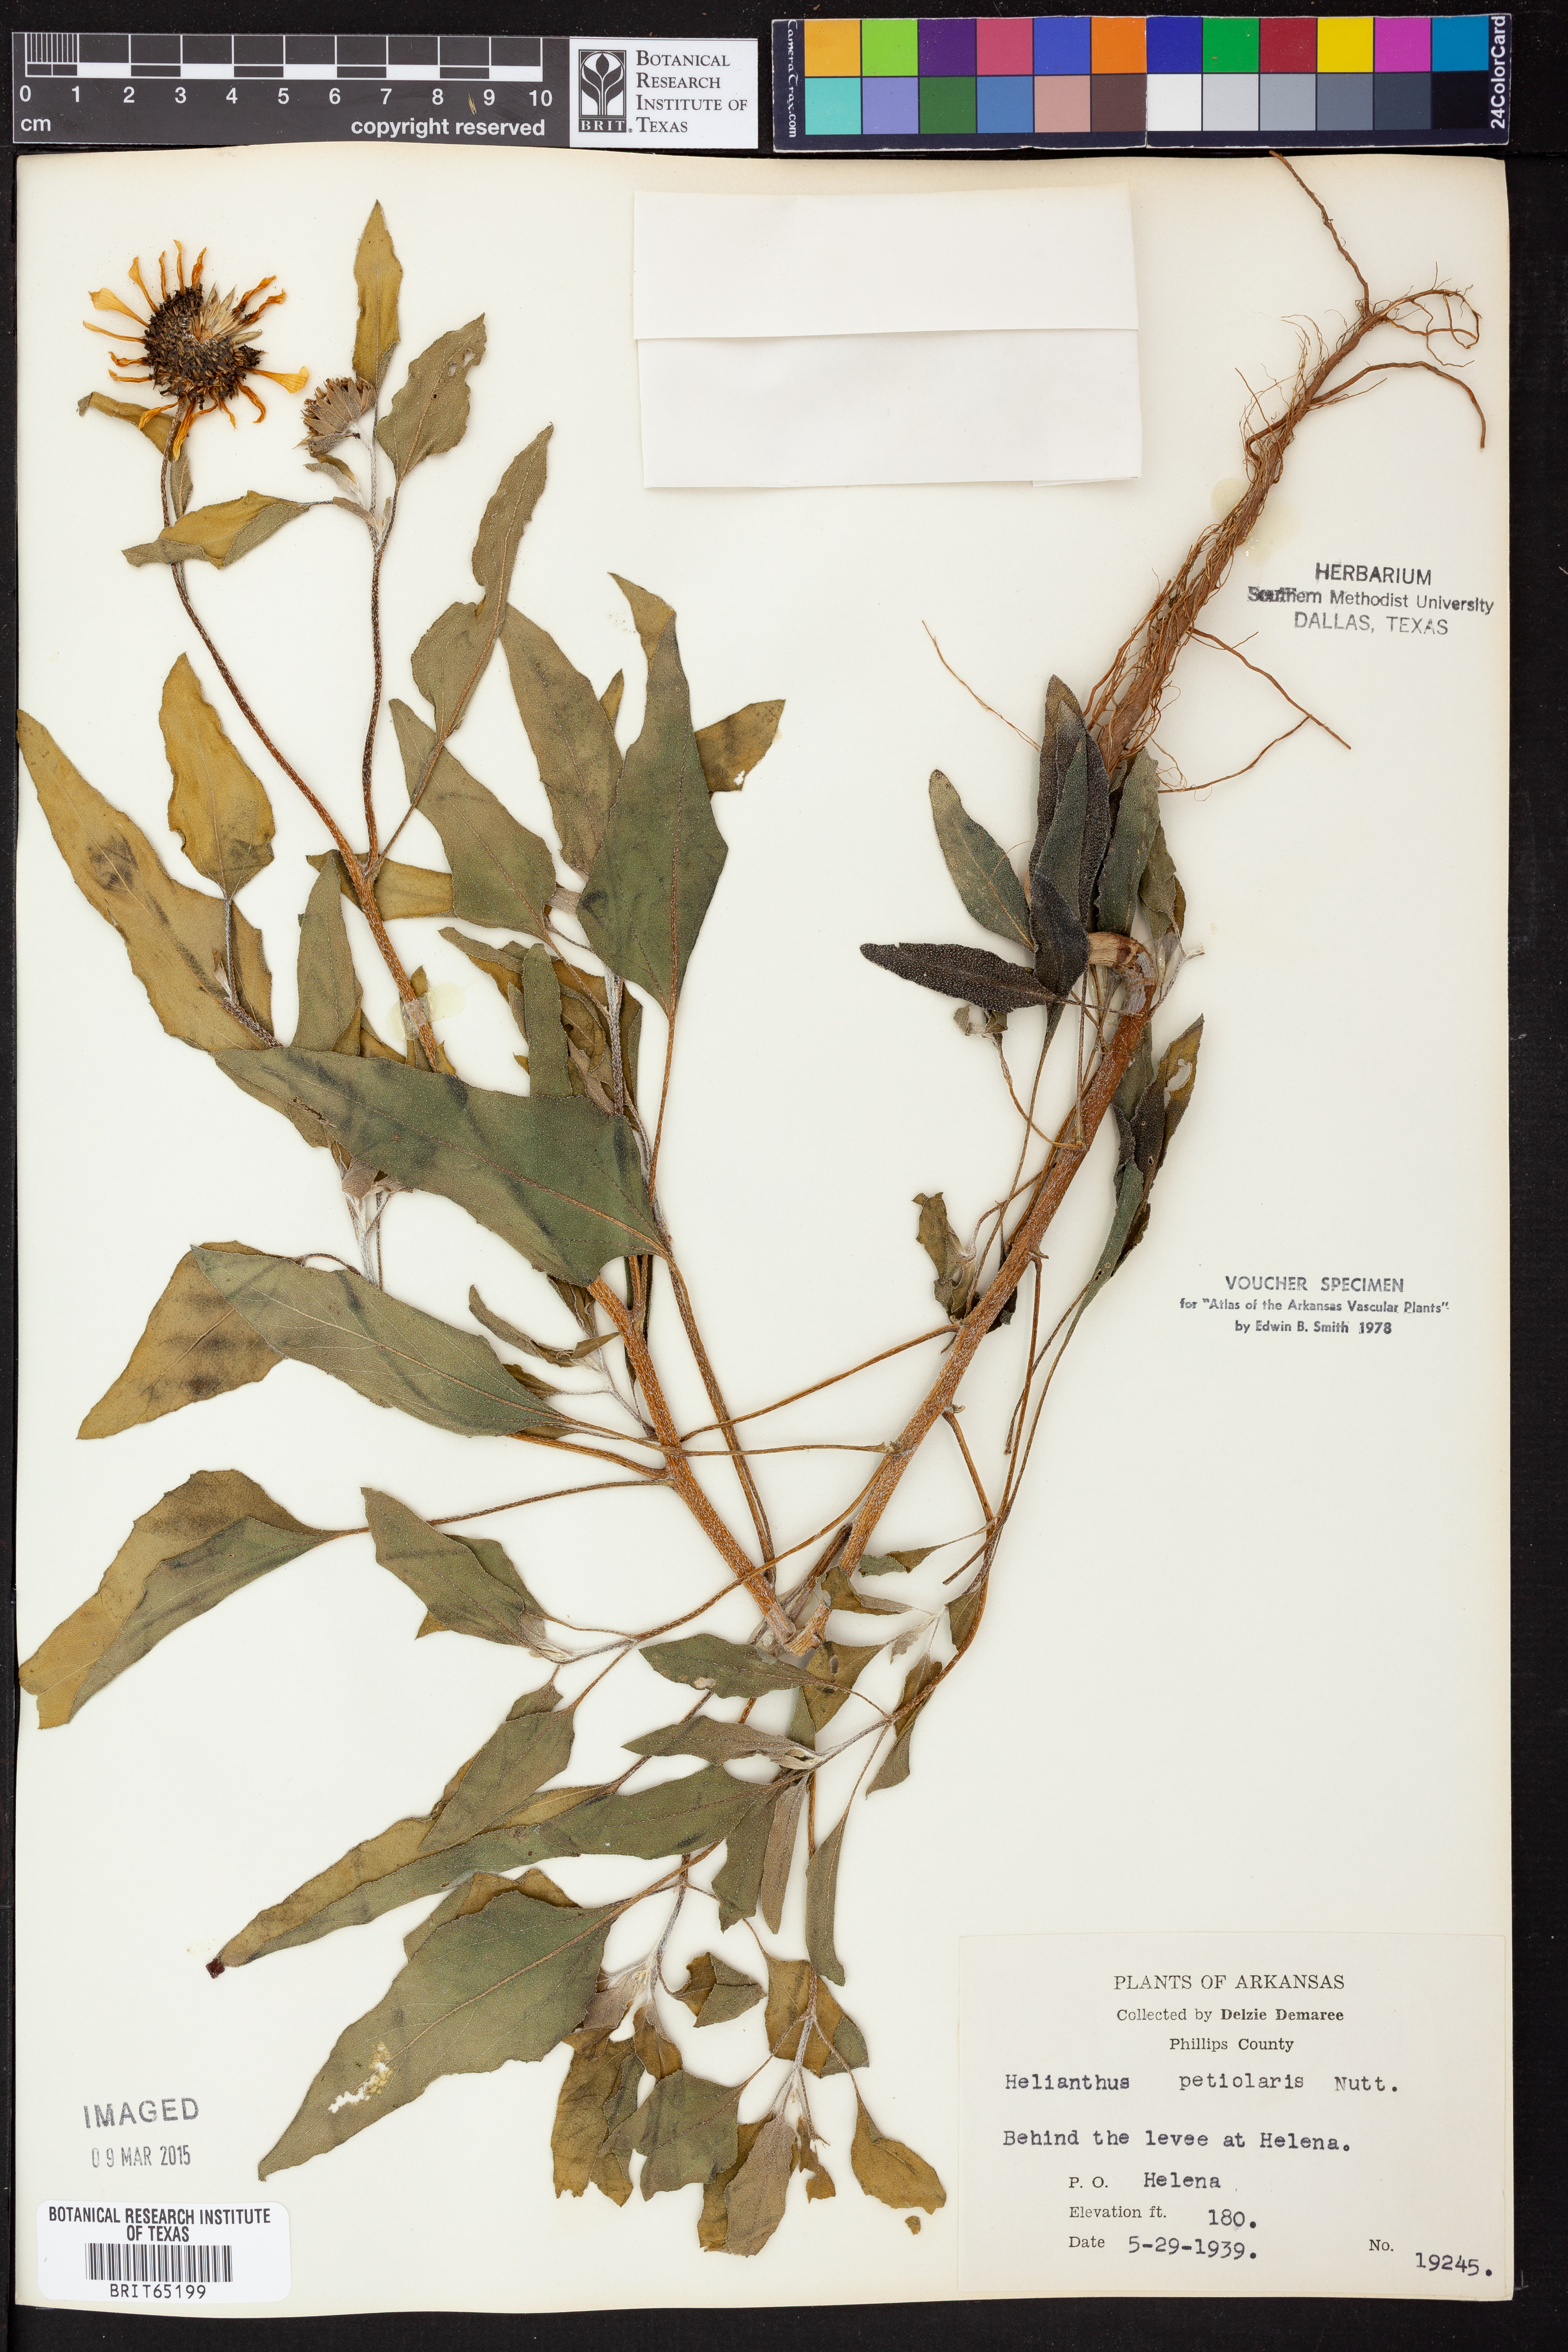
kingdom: Plantae
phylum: Tracheophyta
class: Magnoliopsida
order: Asterales
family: Asteraceae
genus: Helianthus
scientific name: Helianthus petiolaris
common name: Lesser sunflower
